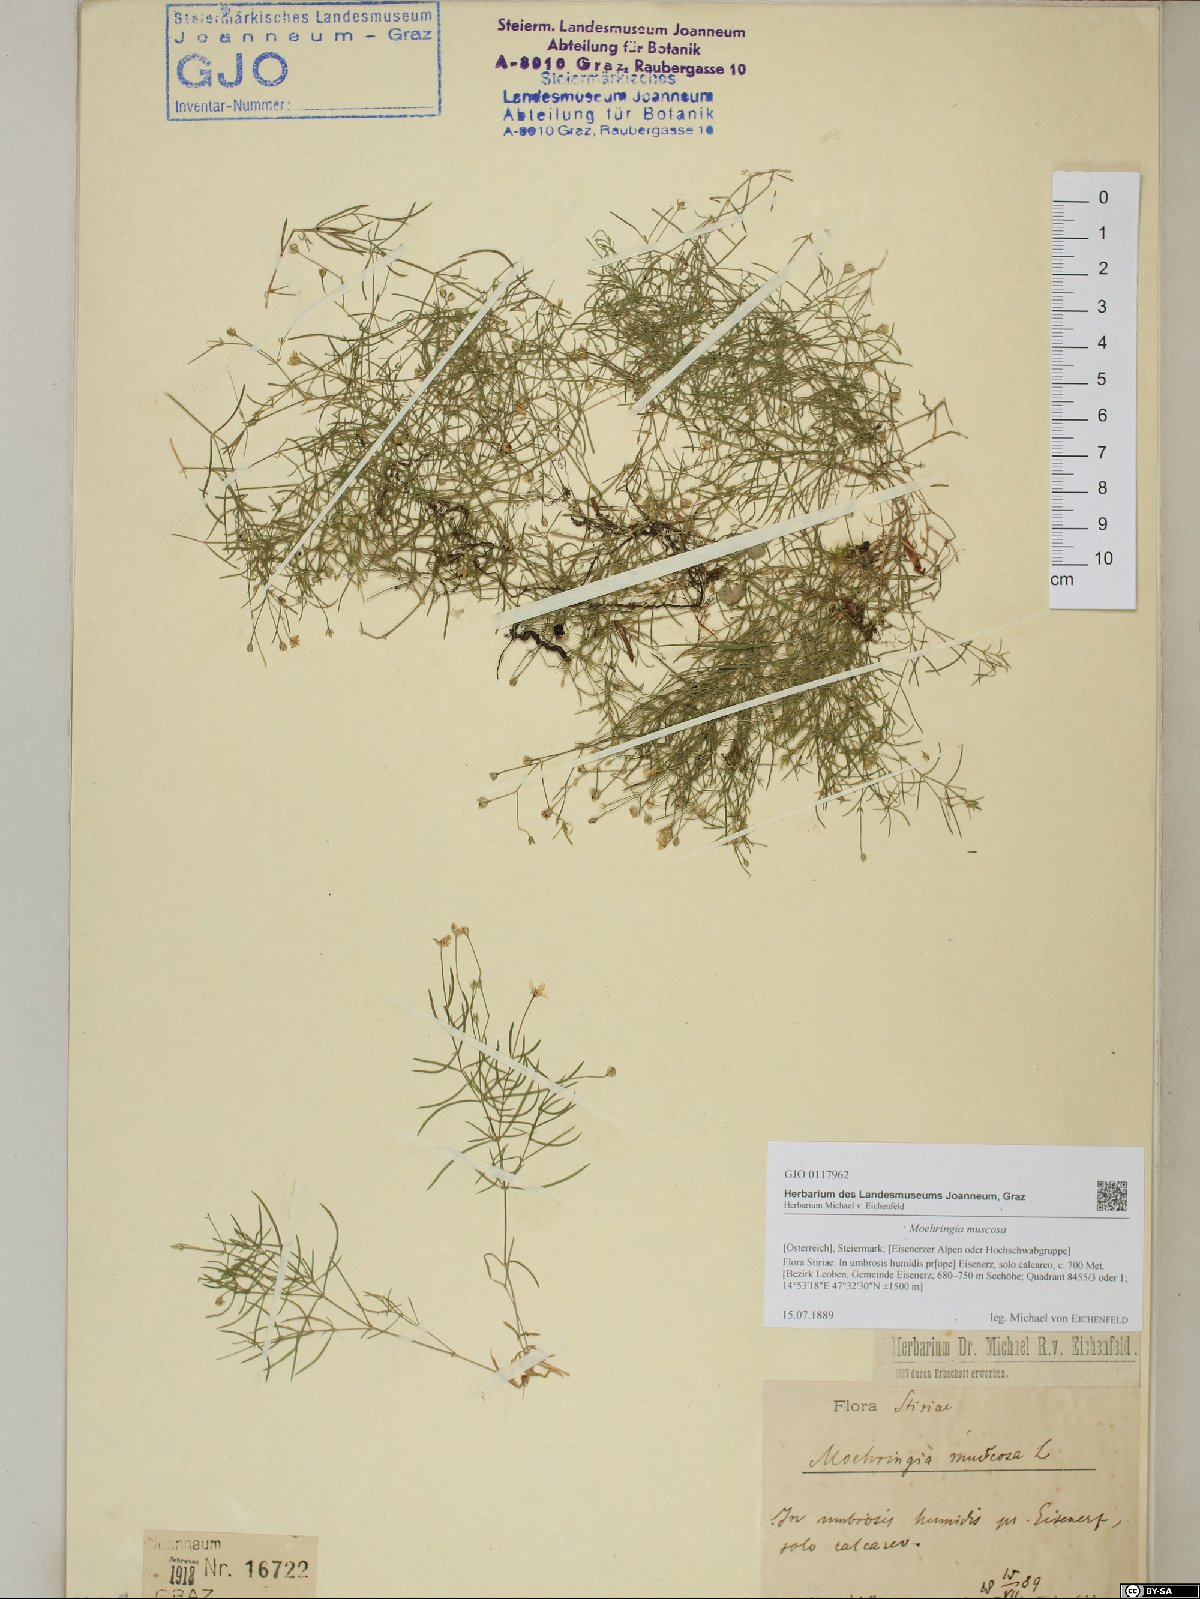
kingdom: Plantae
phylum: Tracheophyta
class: Magnoliopsida
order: Caryophyllales
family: Caryophyllaceae
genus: Moehringia
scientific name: Moehringia muscosa
